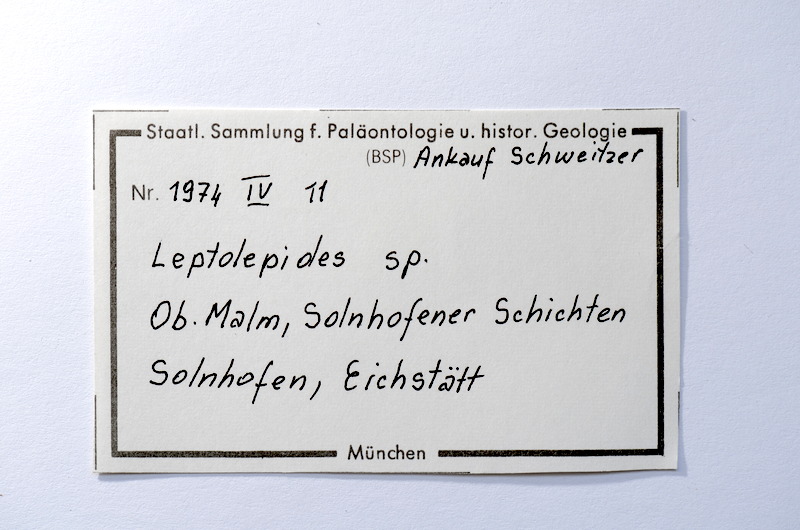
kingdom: Animalia
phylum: Chordata
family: Ascalaboidae
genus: Tharsis
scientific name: Tharsis dubius
